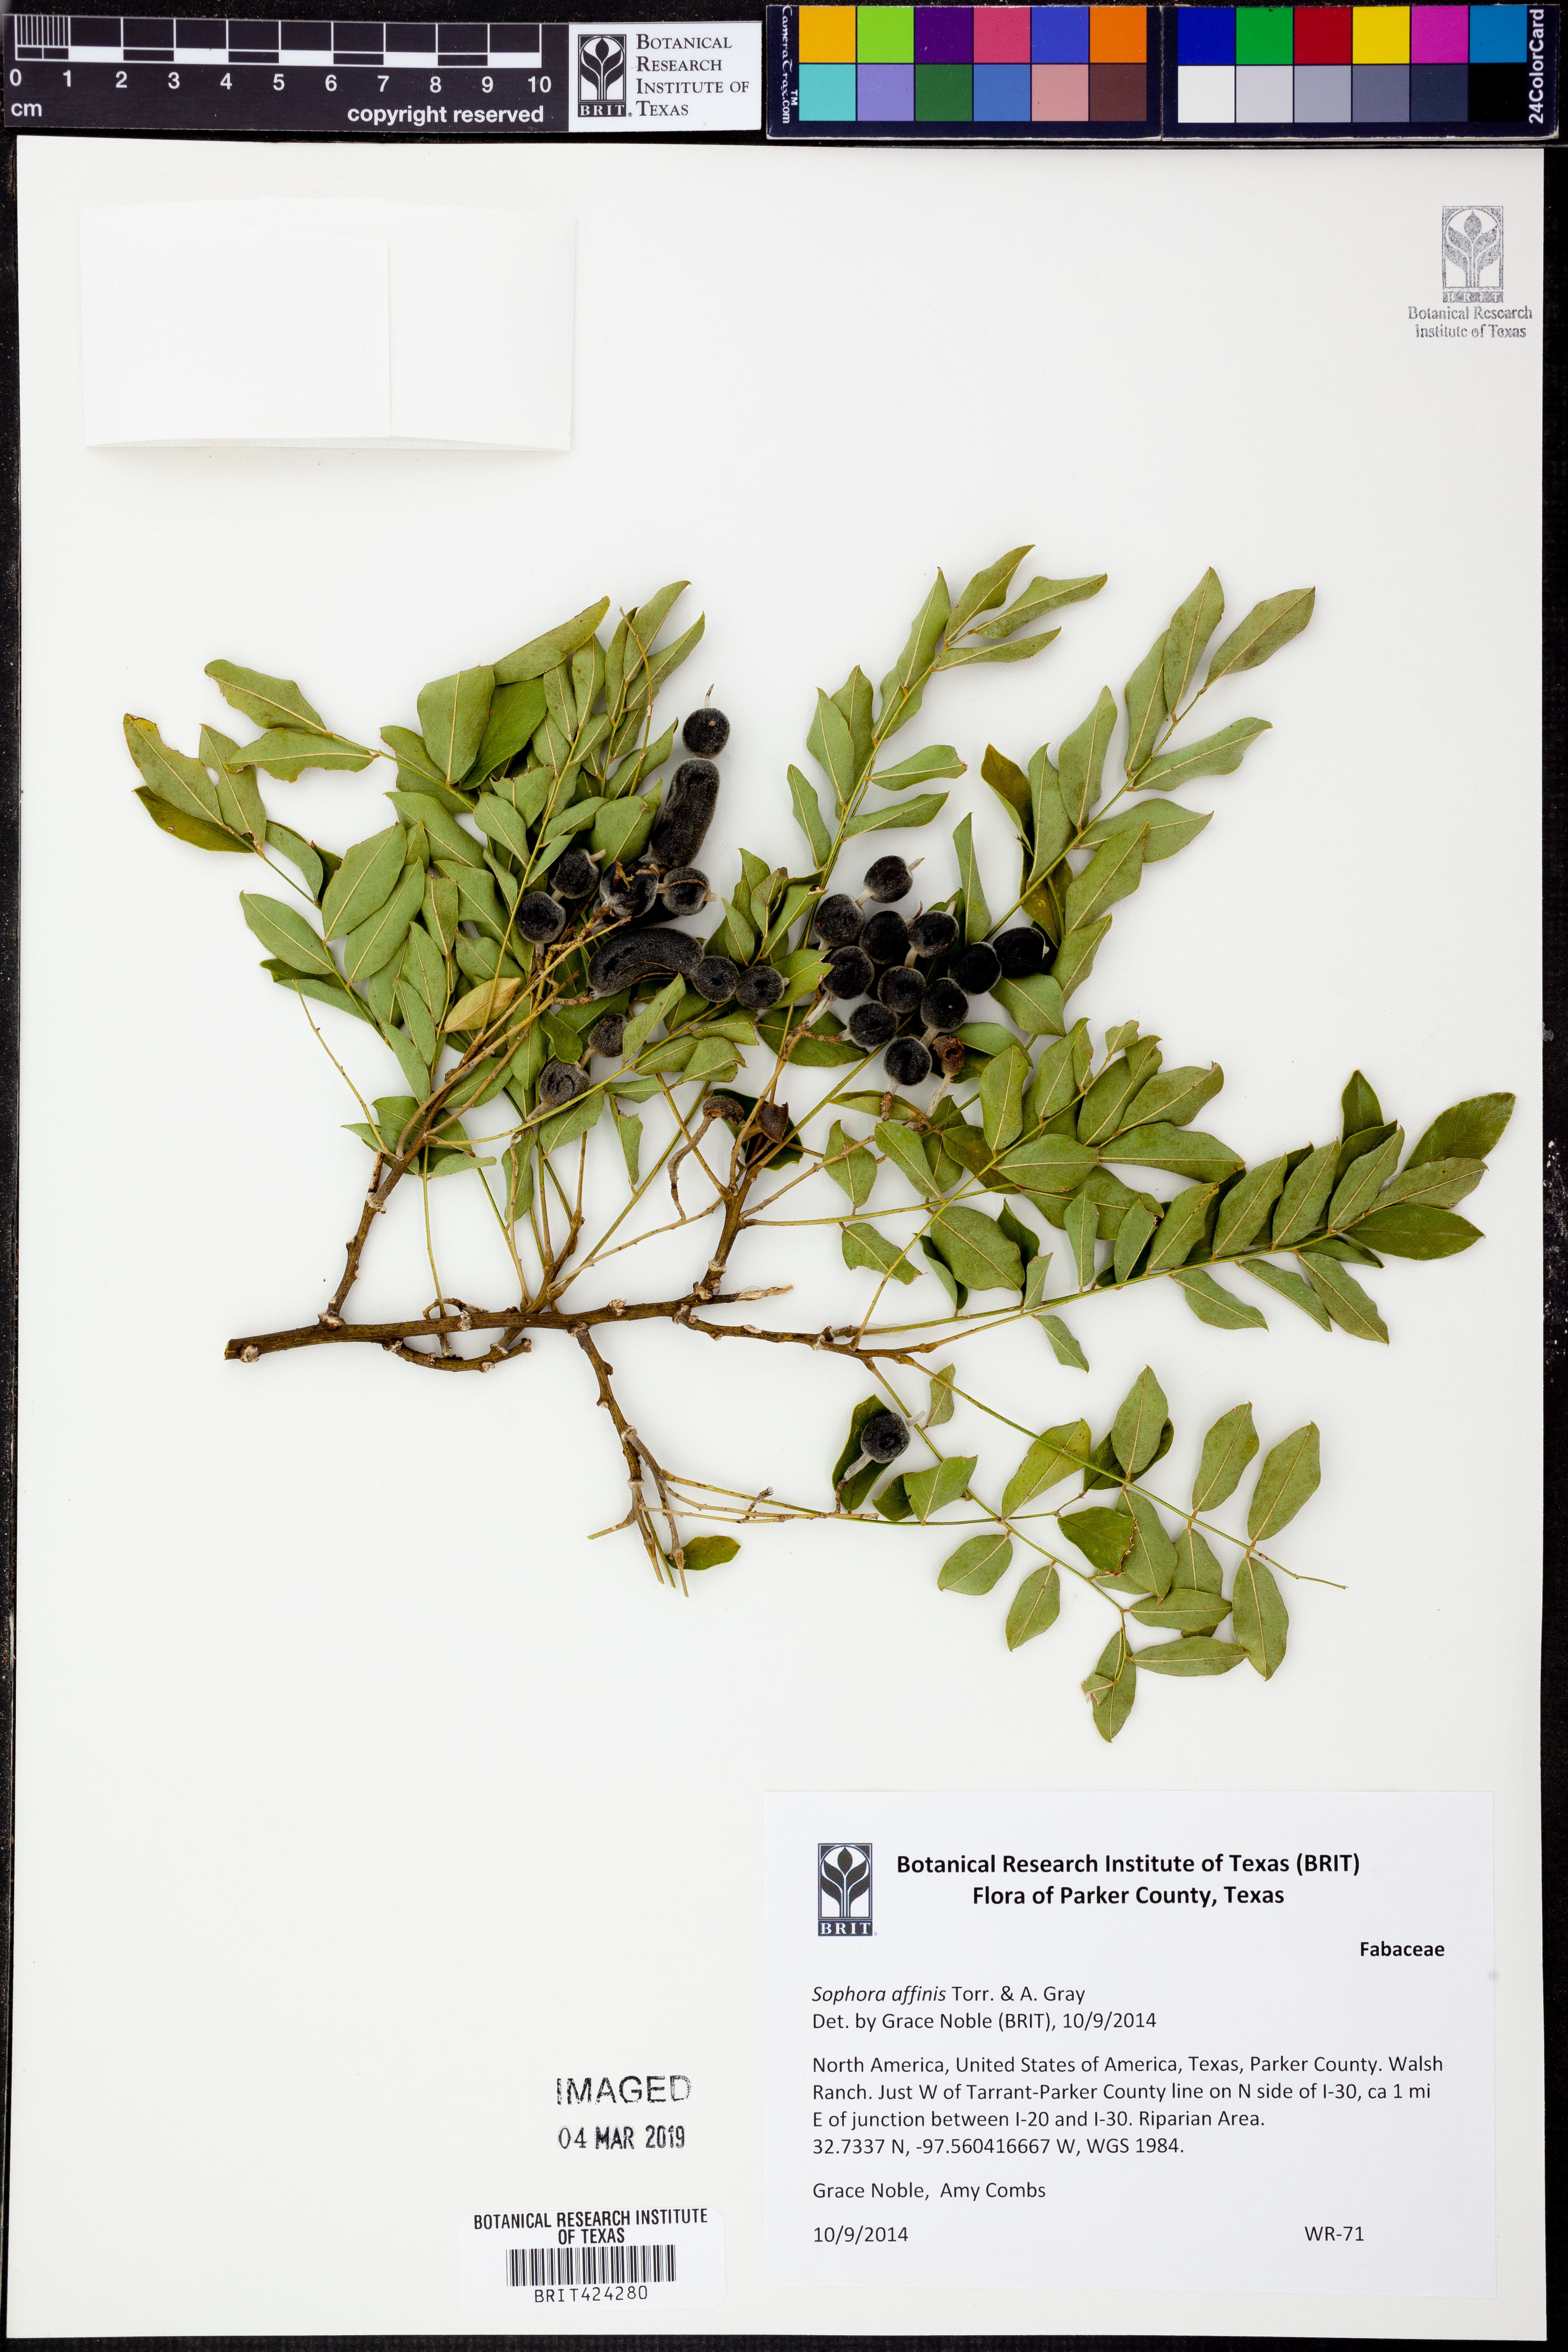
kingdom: Plantae
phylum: Tracheophyta
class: Magnoliopsida
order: Fabales
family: Fabaceae
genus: Styphnolobium
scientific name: Styphnolobium affine
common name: Texas sophora
